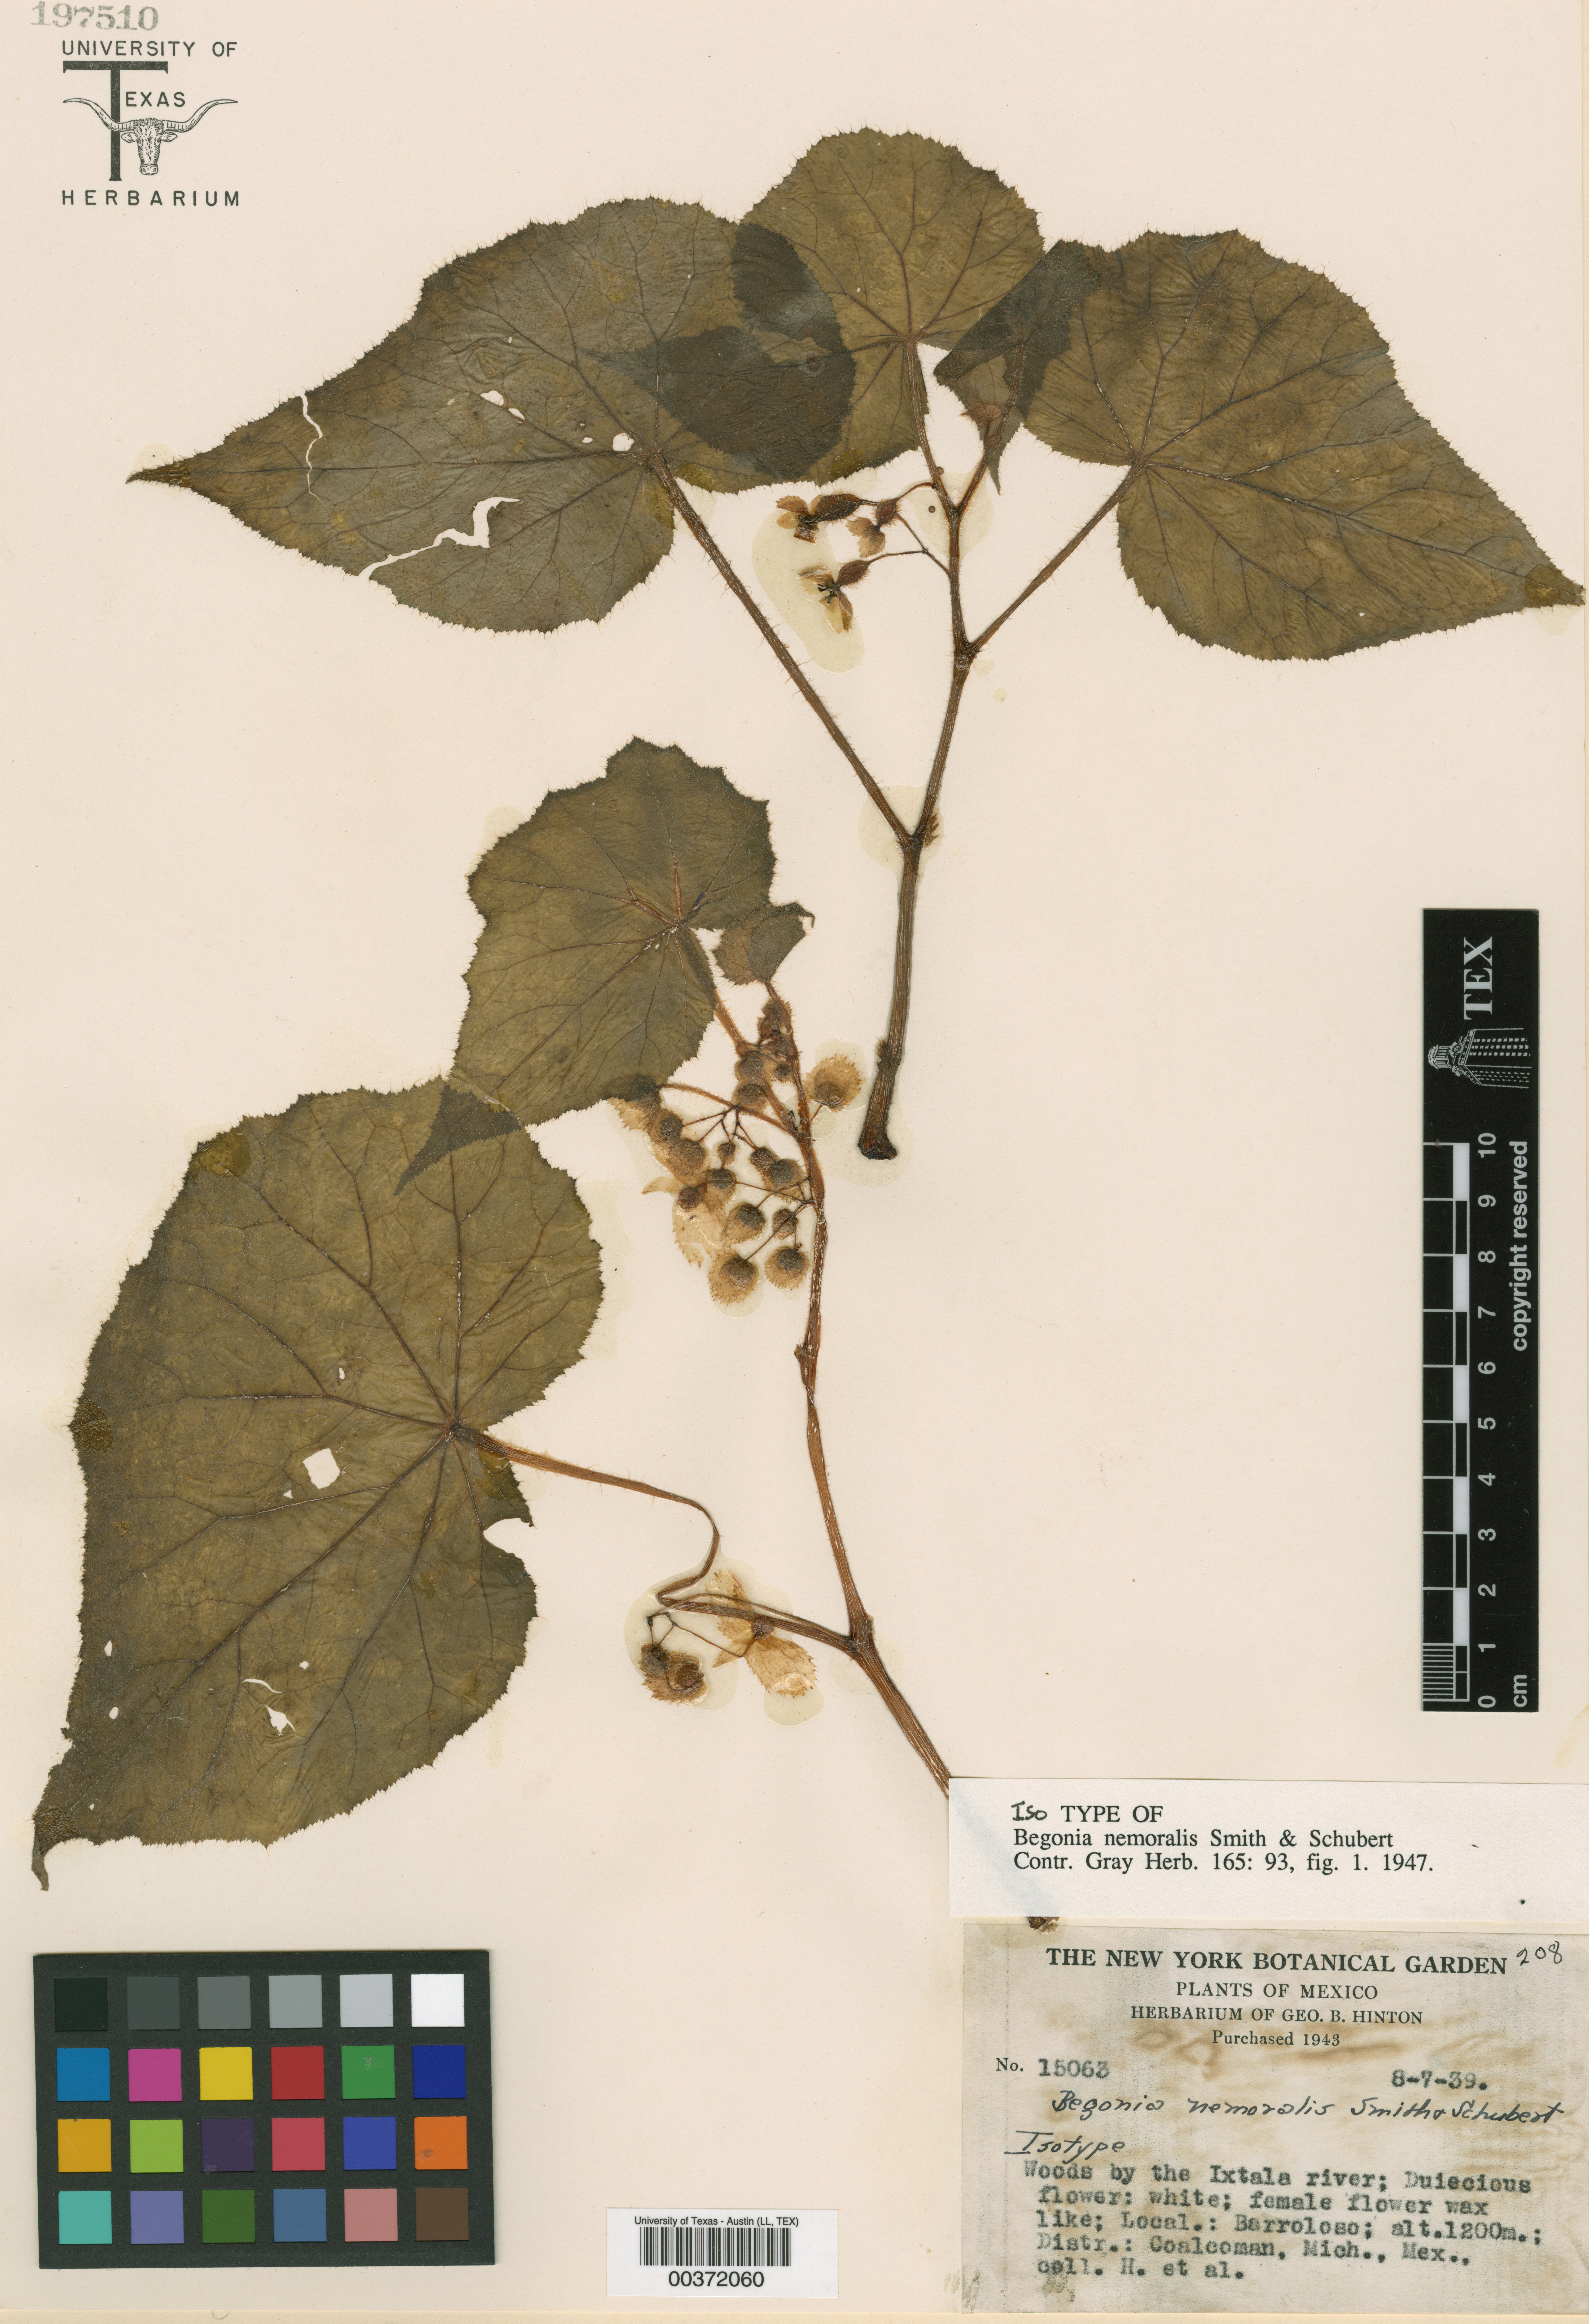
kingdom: Plantae
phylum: Tracheophyta
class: Magnoliopsida
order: Cucurbitales
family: Begoniaceae
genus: Begonia
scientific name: Begonia nemoralis
